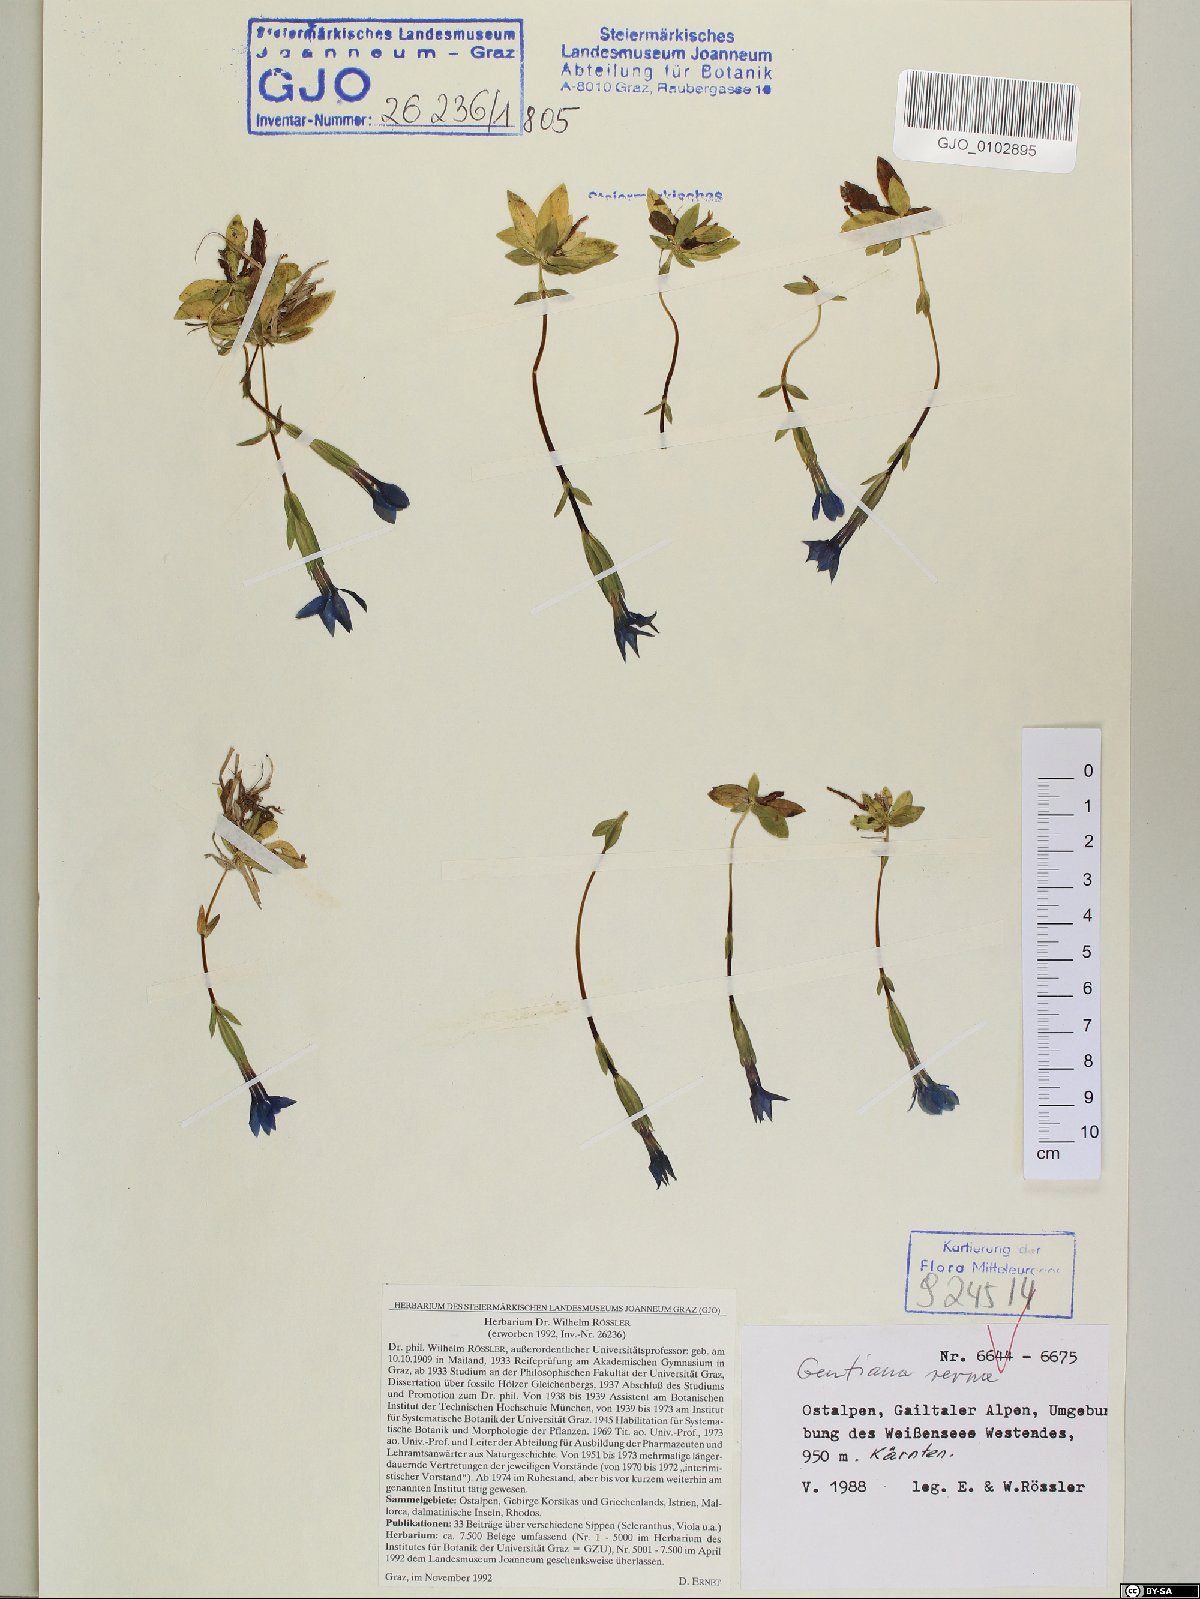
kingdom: Plantae
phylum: Tracheophyta
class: Magnoliopsida
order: Gentianales
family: Gentianaceae
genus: Gentiana
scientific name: Gentiana verna
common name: Spring gentian
